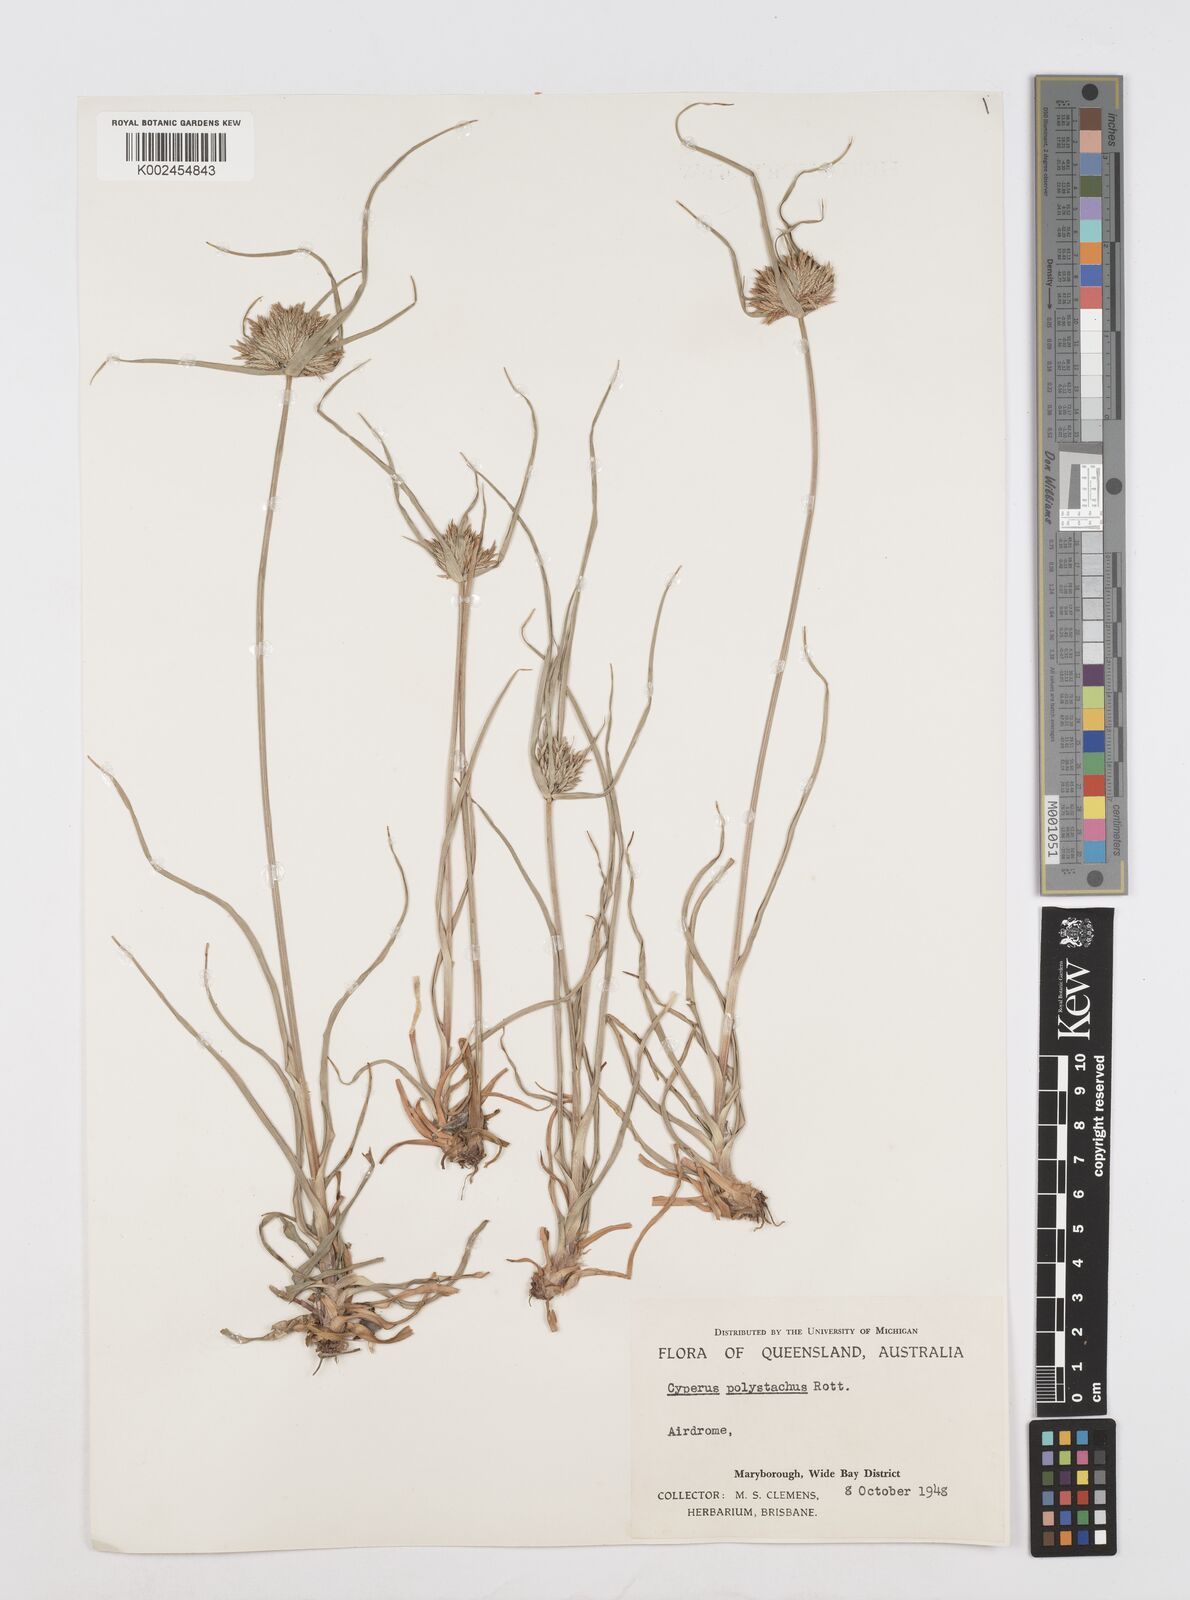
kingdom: Plantae
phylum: Tracheophyta
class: Liliopsida
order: Poales
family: Cyperaceae
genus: Cyperus
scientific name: Cyperus polystachyos
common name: Bunchy flat sedge
